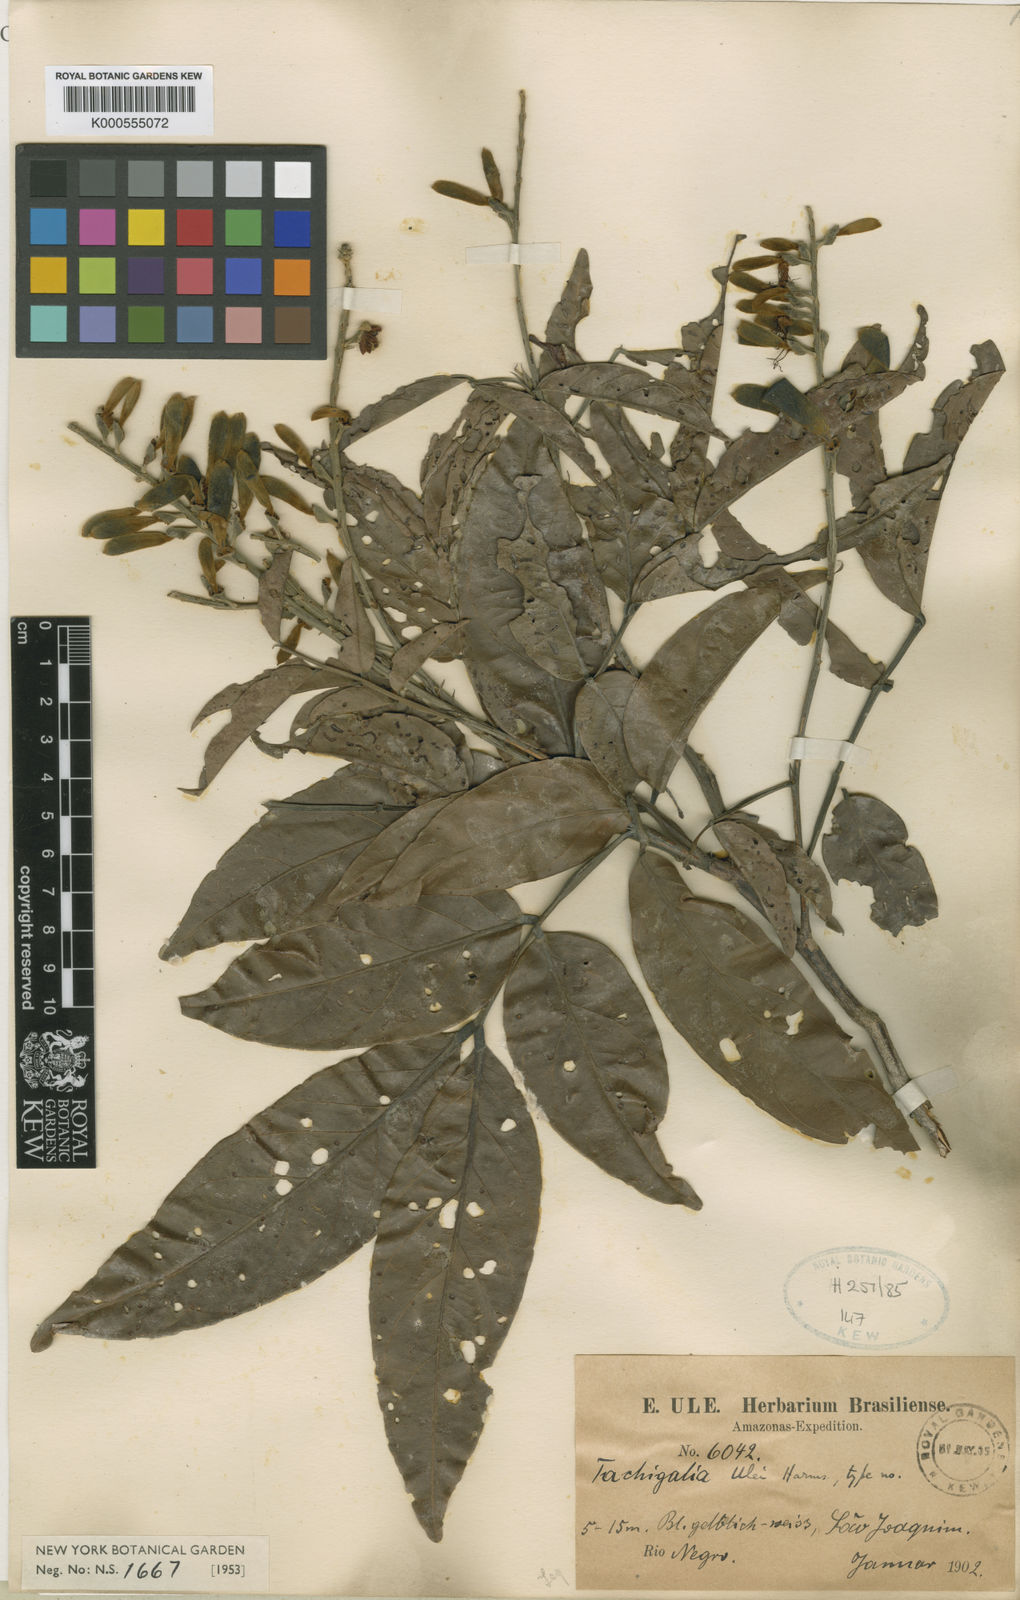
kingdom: Plantae
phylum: Tracheophyta
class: Magnoliopsida
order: Fabales
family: Fabaceae
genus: Tachigali
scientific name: Tachigali paniculata
